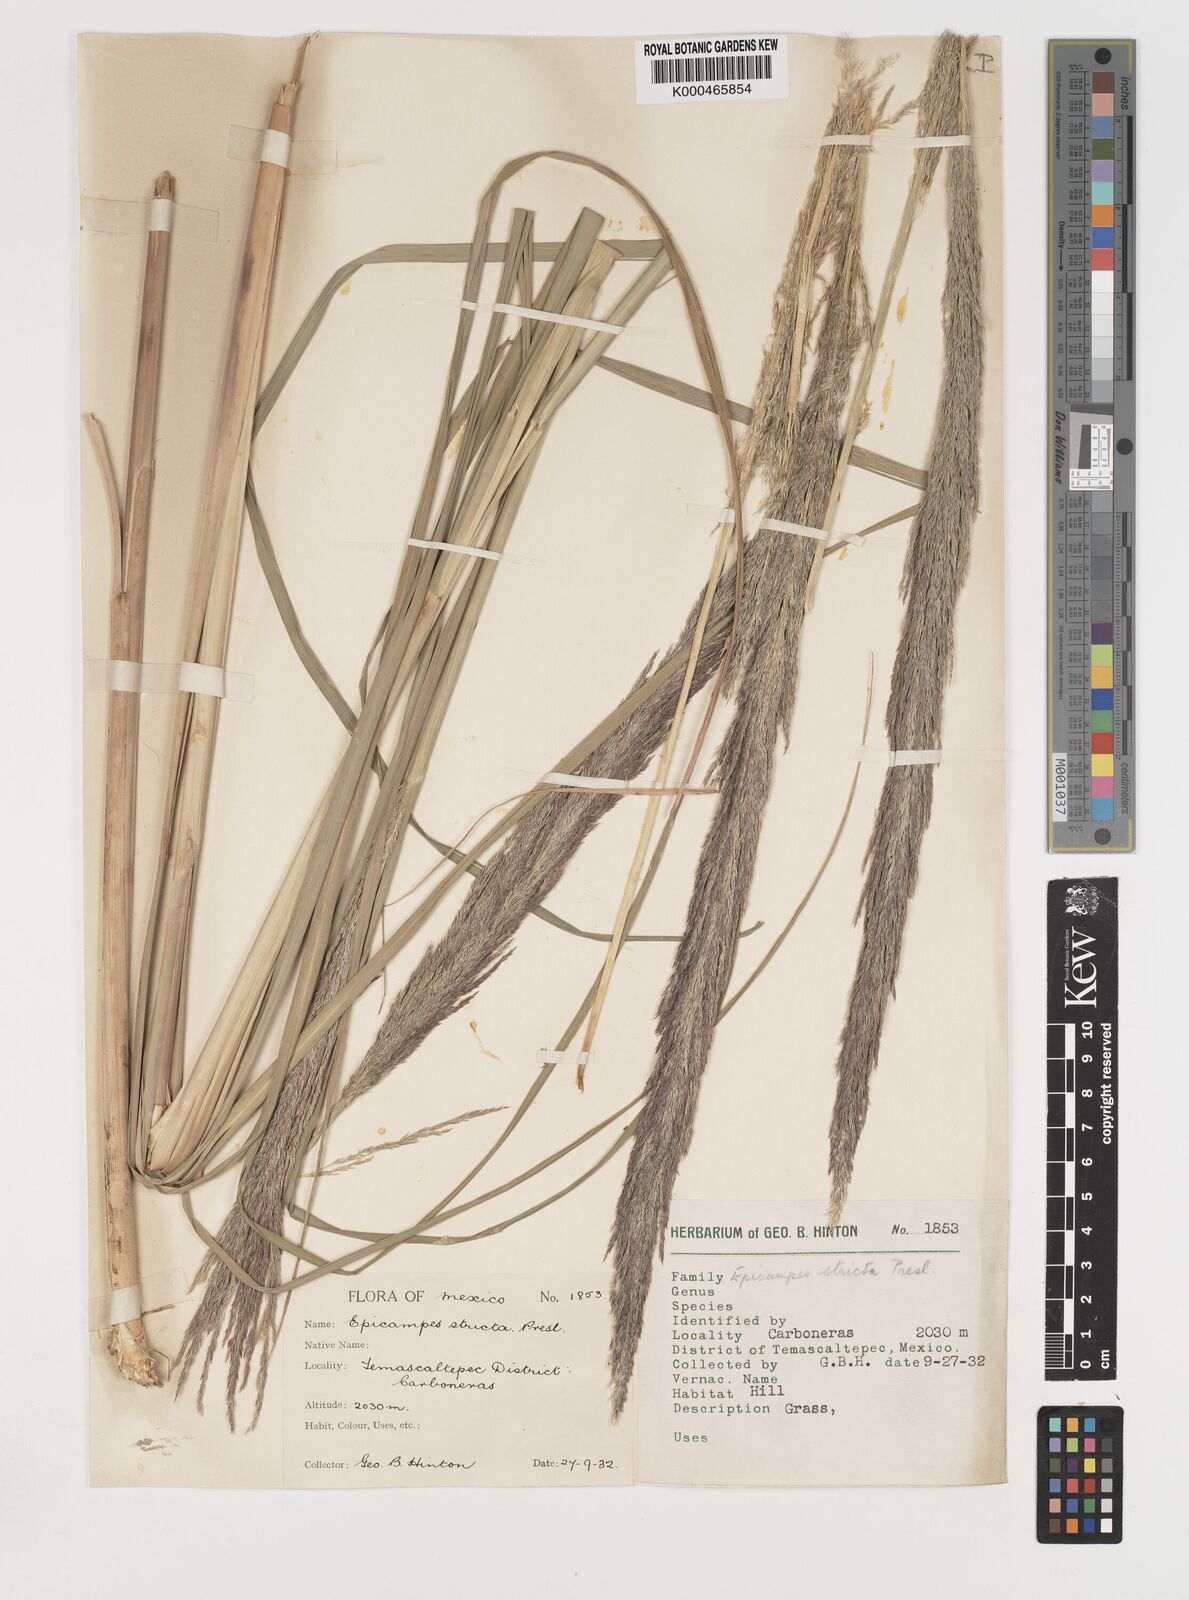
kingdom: Plantae
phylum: Tracheophyta
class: Liliopsida
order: Poales
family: Poaceae
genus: Muhlenbergia
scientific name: Muhlenbergia robusta
